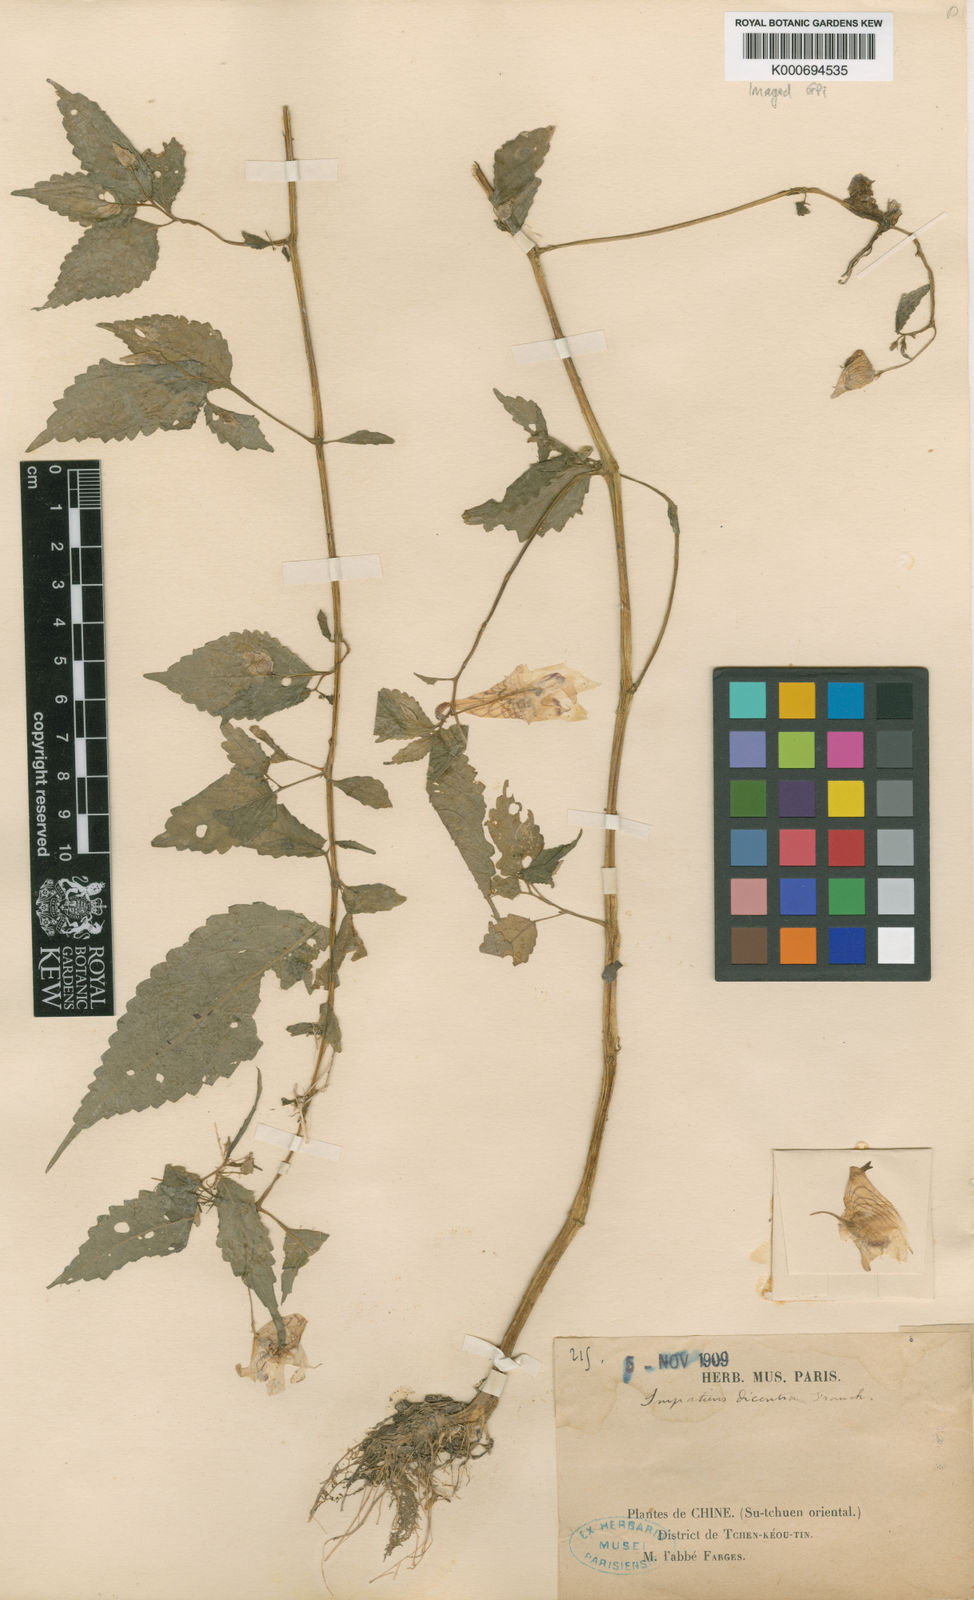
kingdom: Plantae
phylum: Tracheophyta
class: Magnoliopsida
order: Ericales
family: Balsaminaceae
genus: Impatiens
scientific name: Impatiens dicentra
